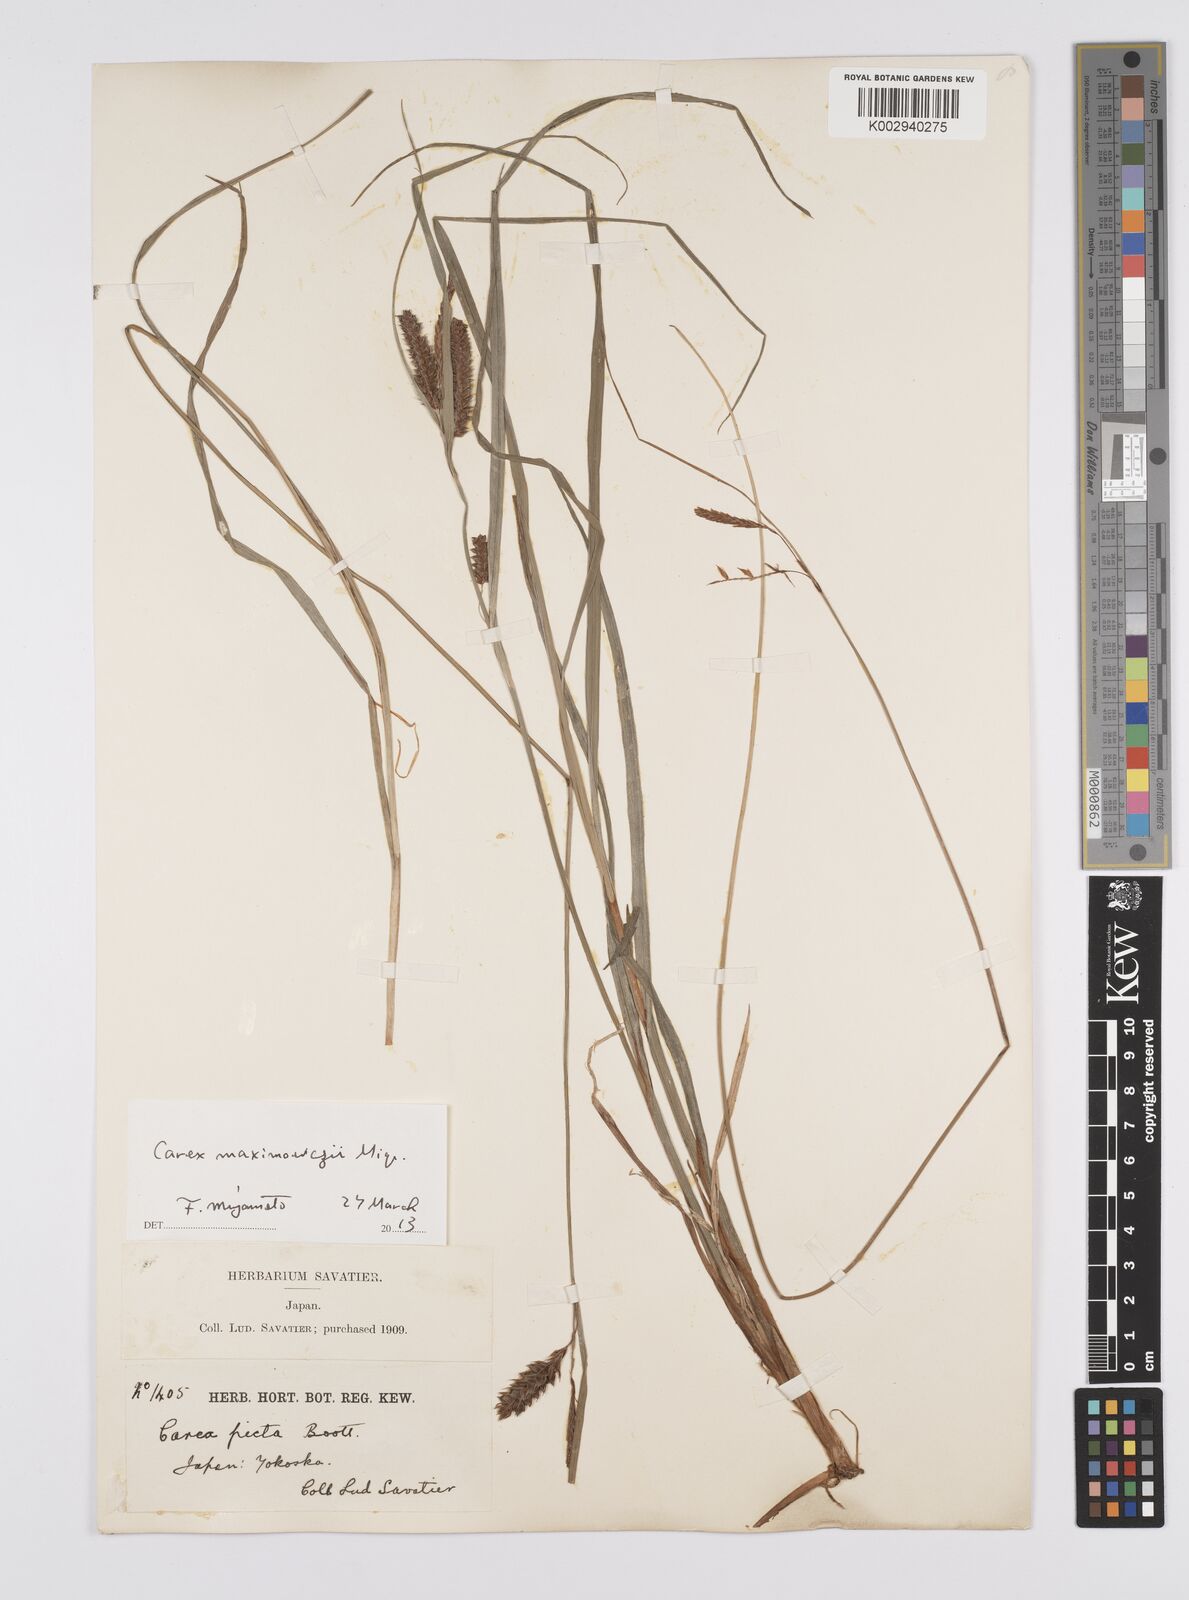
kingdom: Plantae
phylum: Tracheophyta
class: Liliopsida
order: Poales
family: Cyperaceae
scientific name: Cyperaceae
